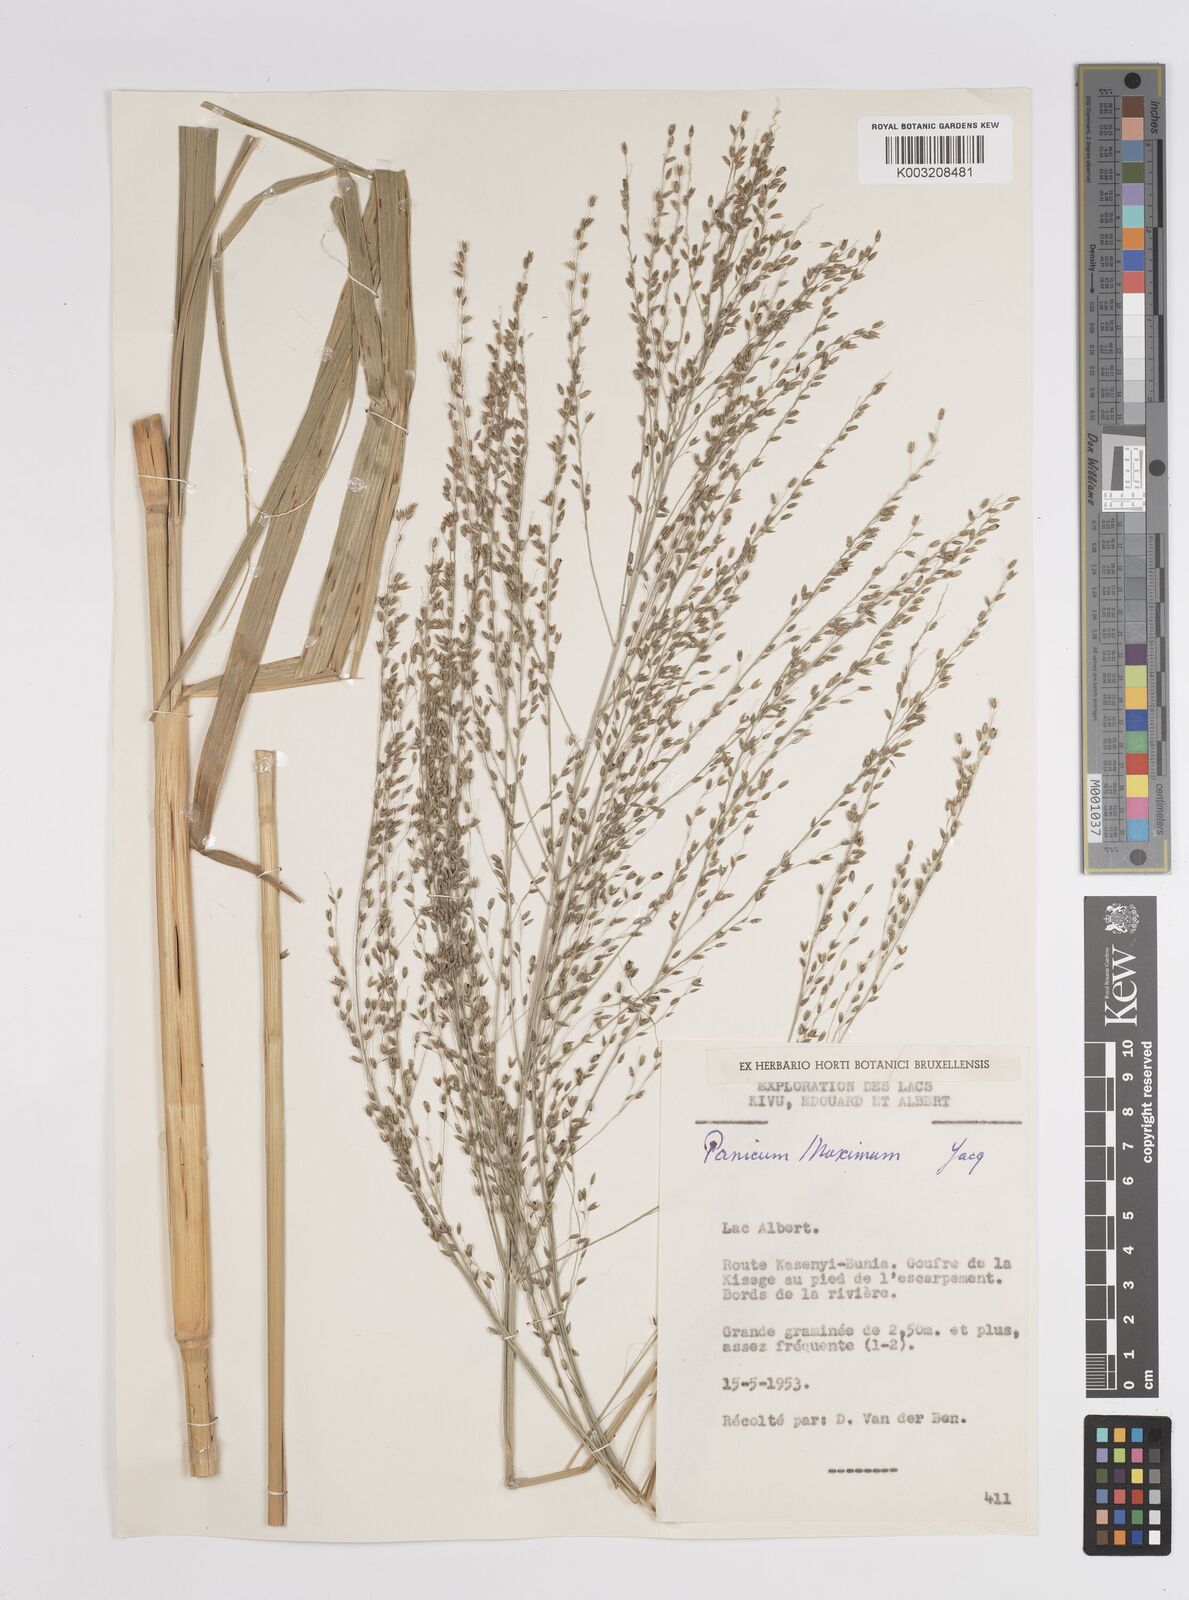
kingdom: Plantae
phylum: Tracheophyta
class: Liliopsida
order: Poales
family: Poaceae
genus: Megathyrsus
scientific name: Megathyrsus maximus
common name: Guineagrass
